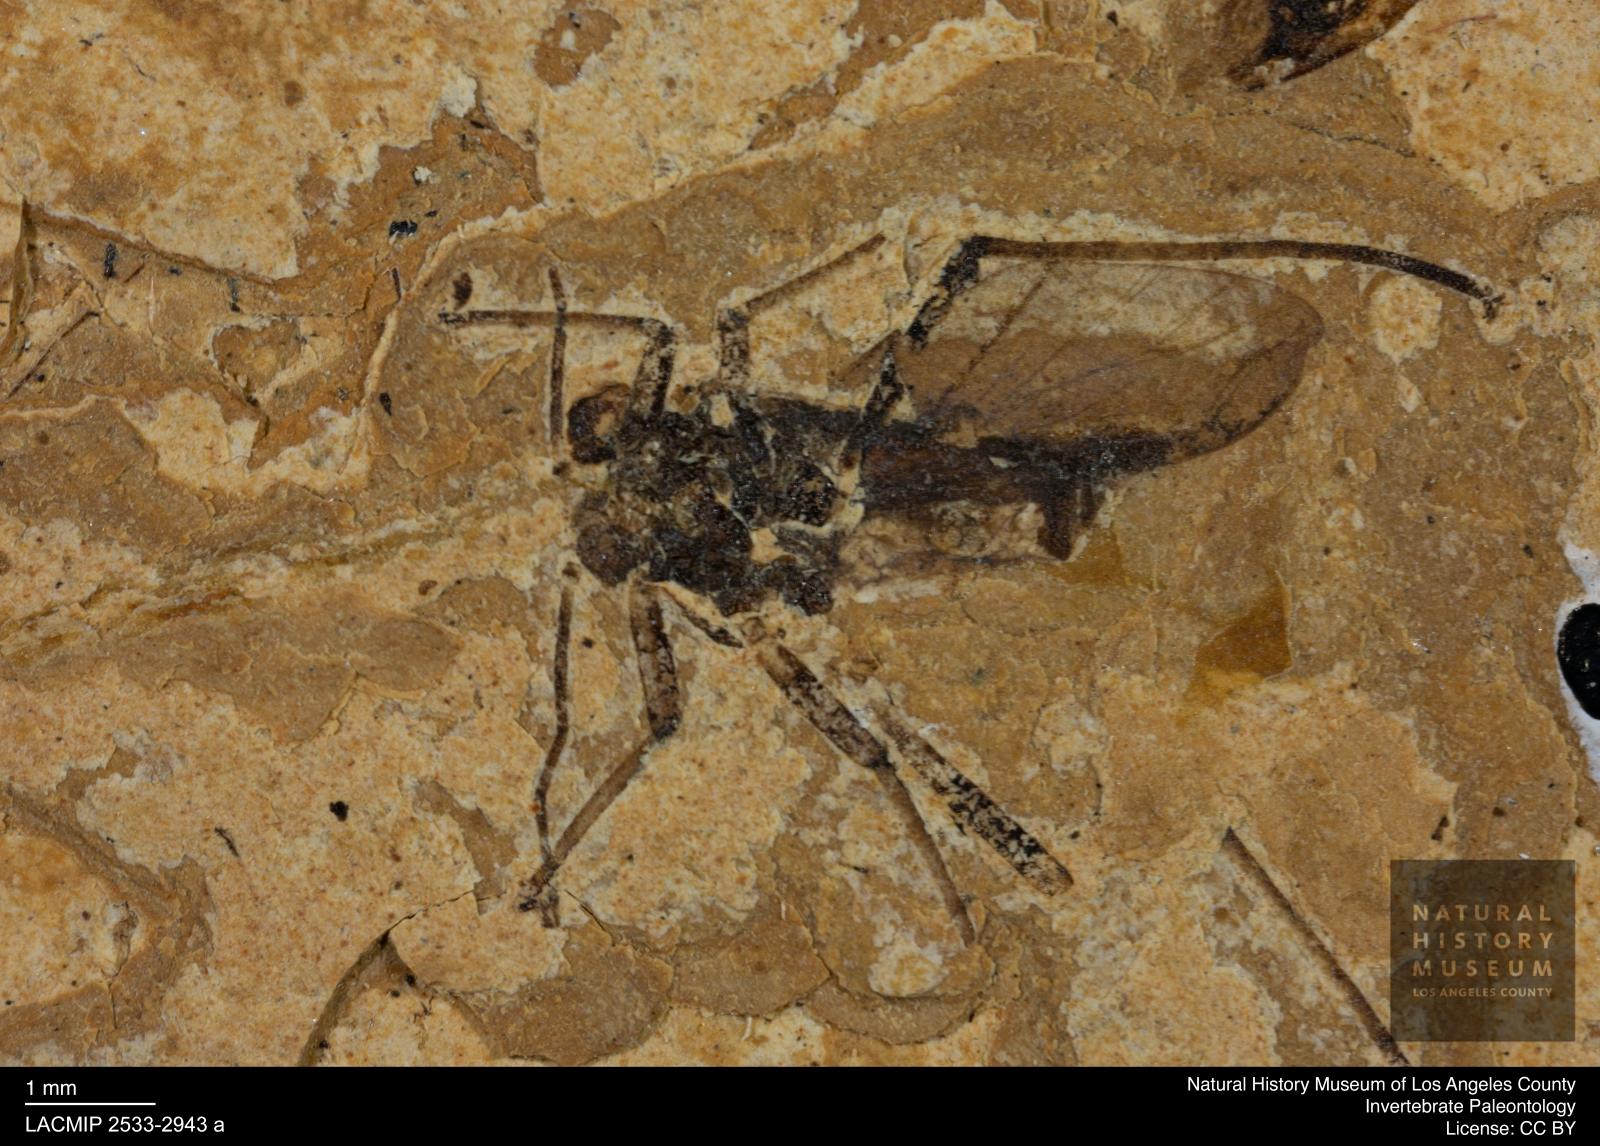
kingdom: Animalia
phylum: Arthropoda
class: Insecta
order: Hemiptera
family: Aphididae
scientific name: Aphididae
